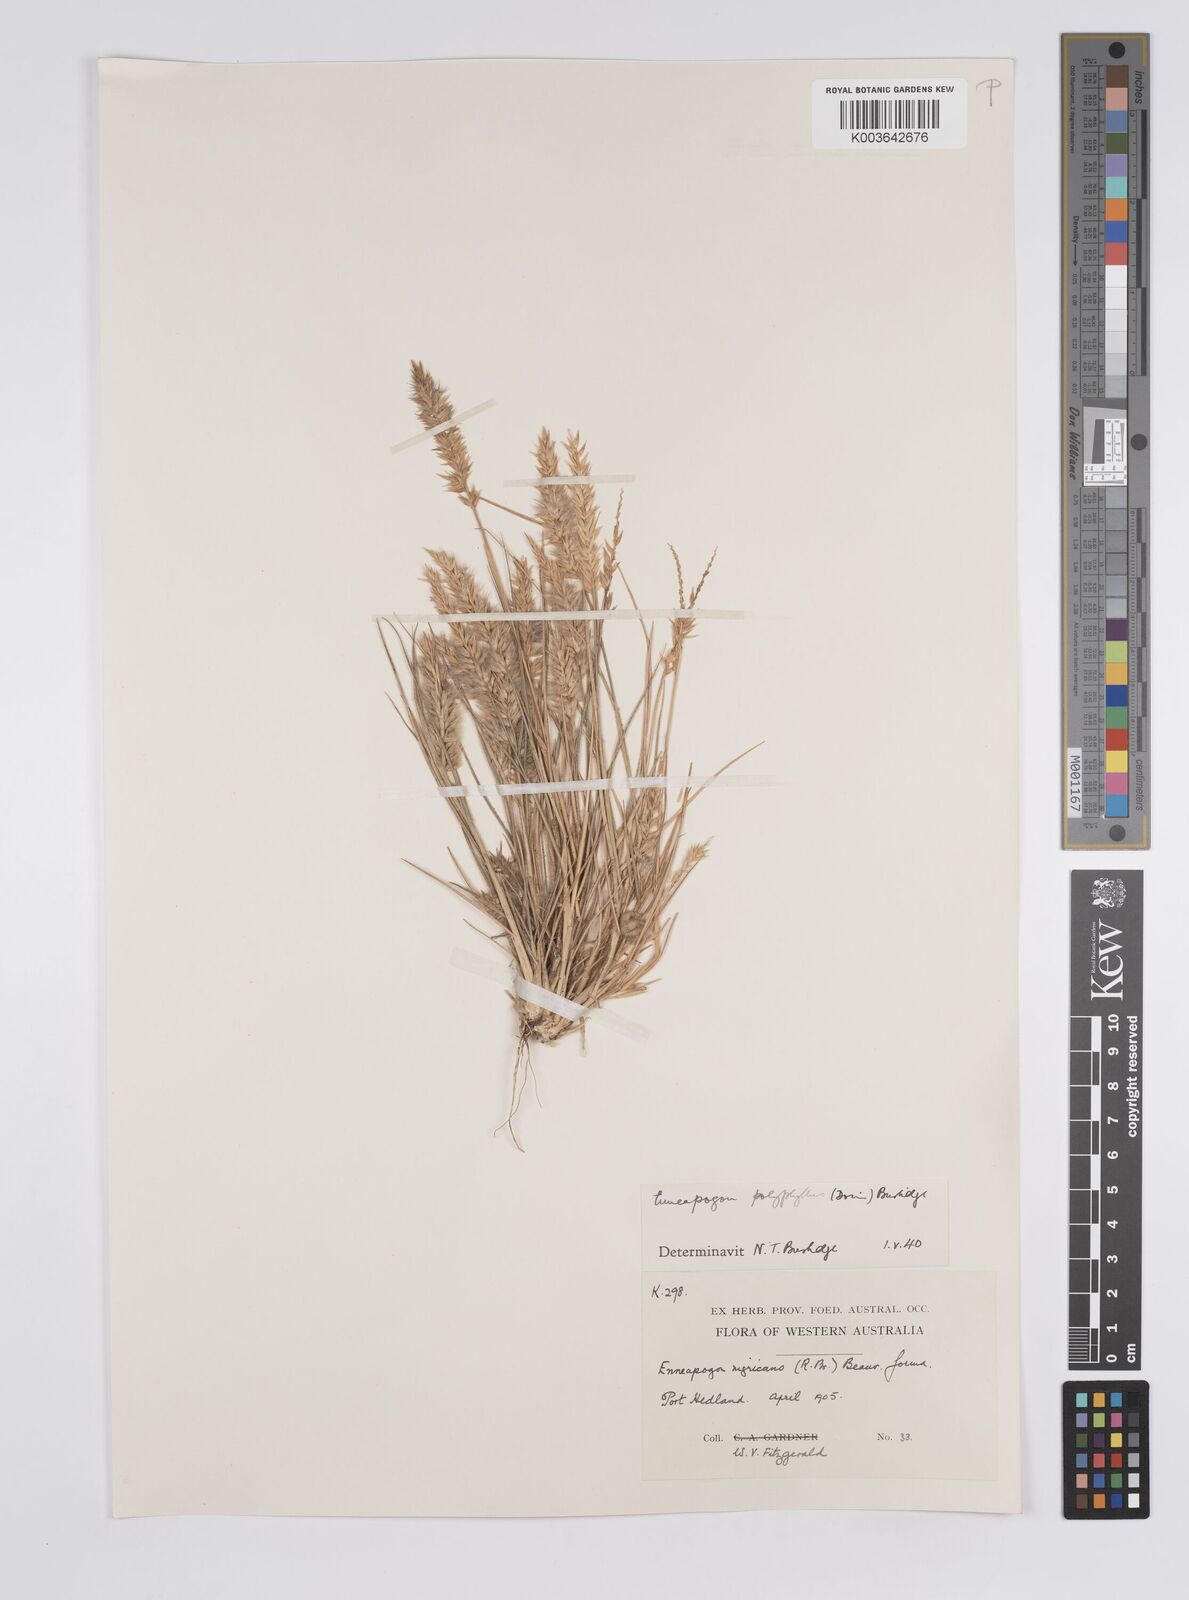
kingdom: Plantae
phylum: Tracheophyta
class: Liliopsida
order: Poales
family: Poaceae
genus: Enneapogon
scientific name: Enneapogon polyphyllus
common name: Leafy nineawn
